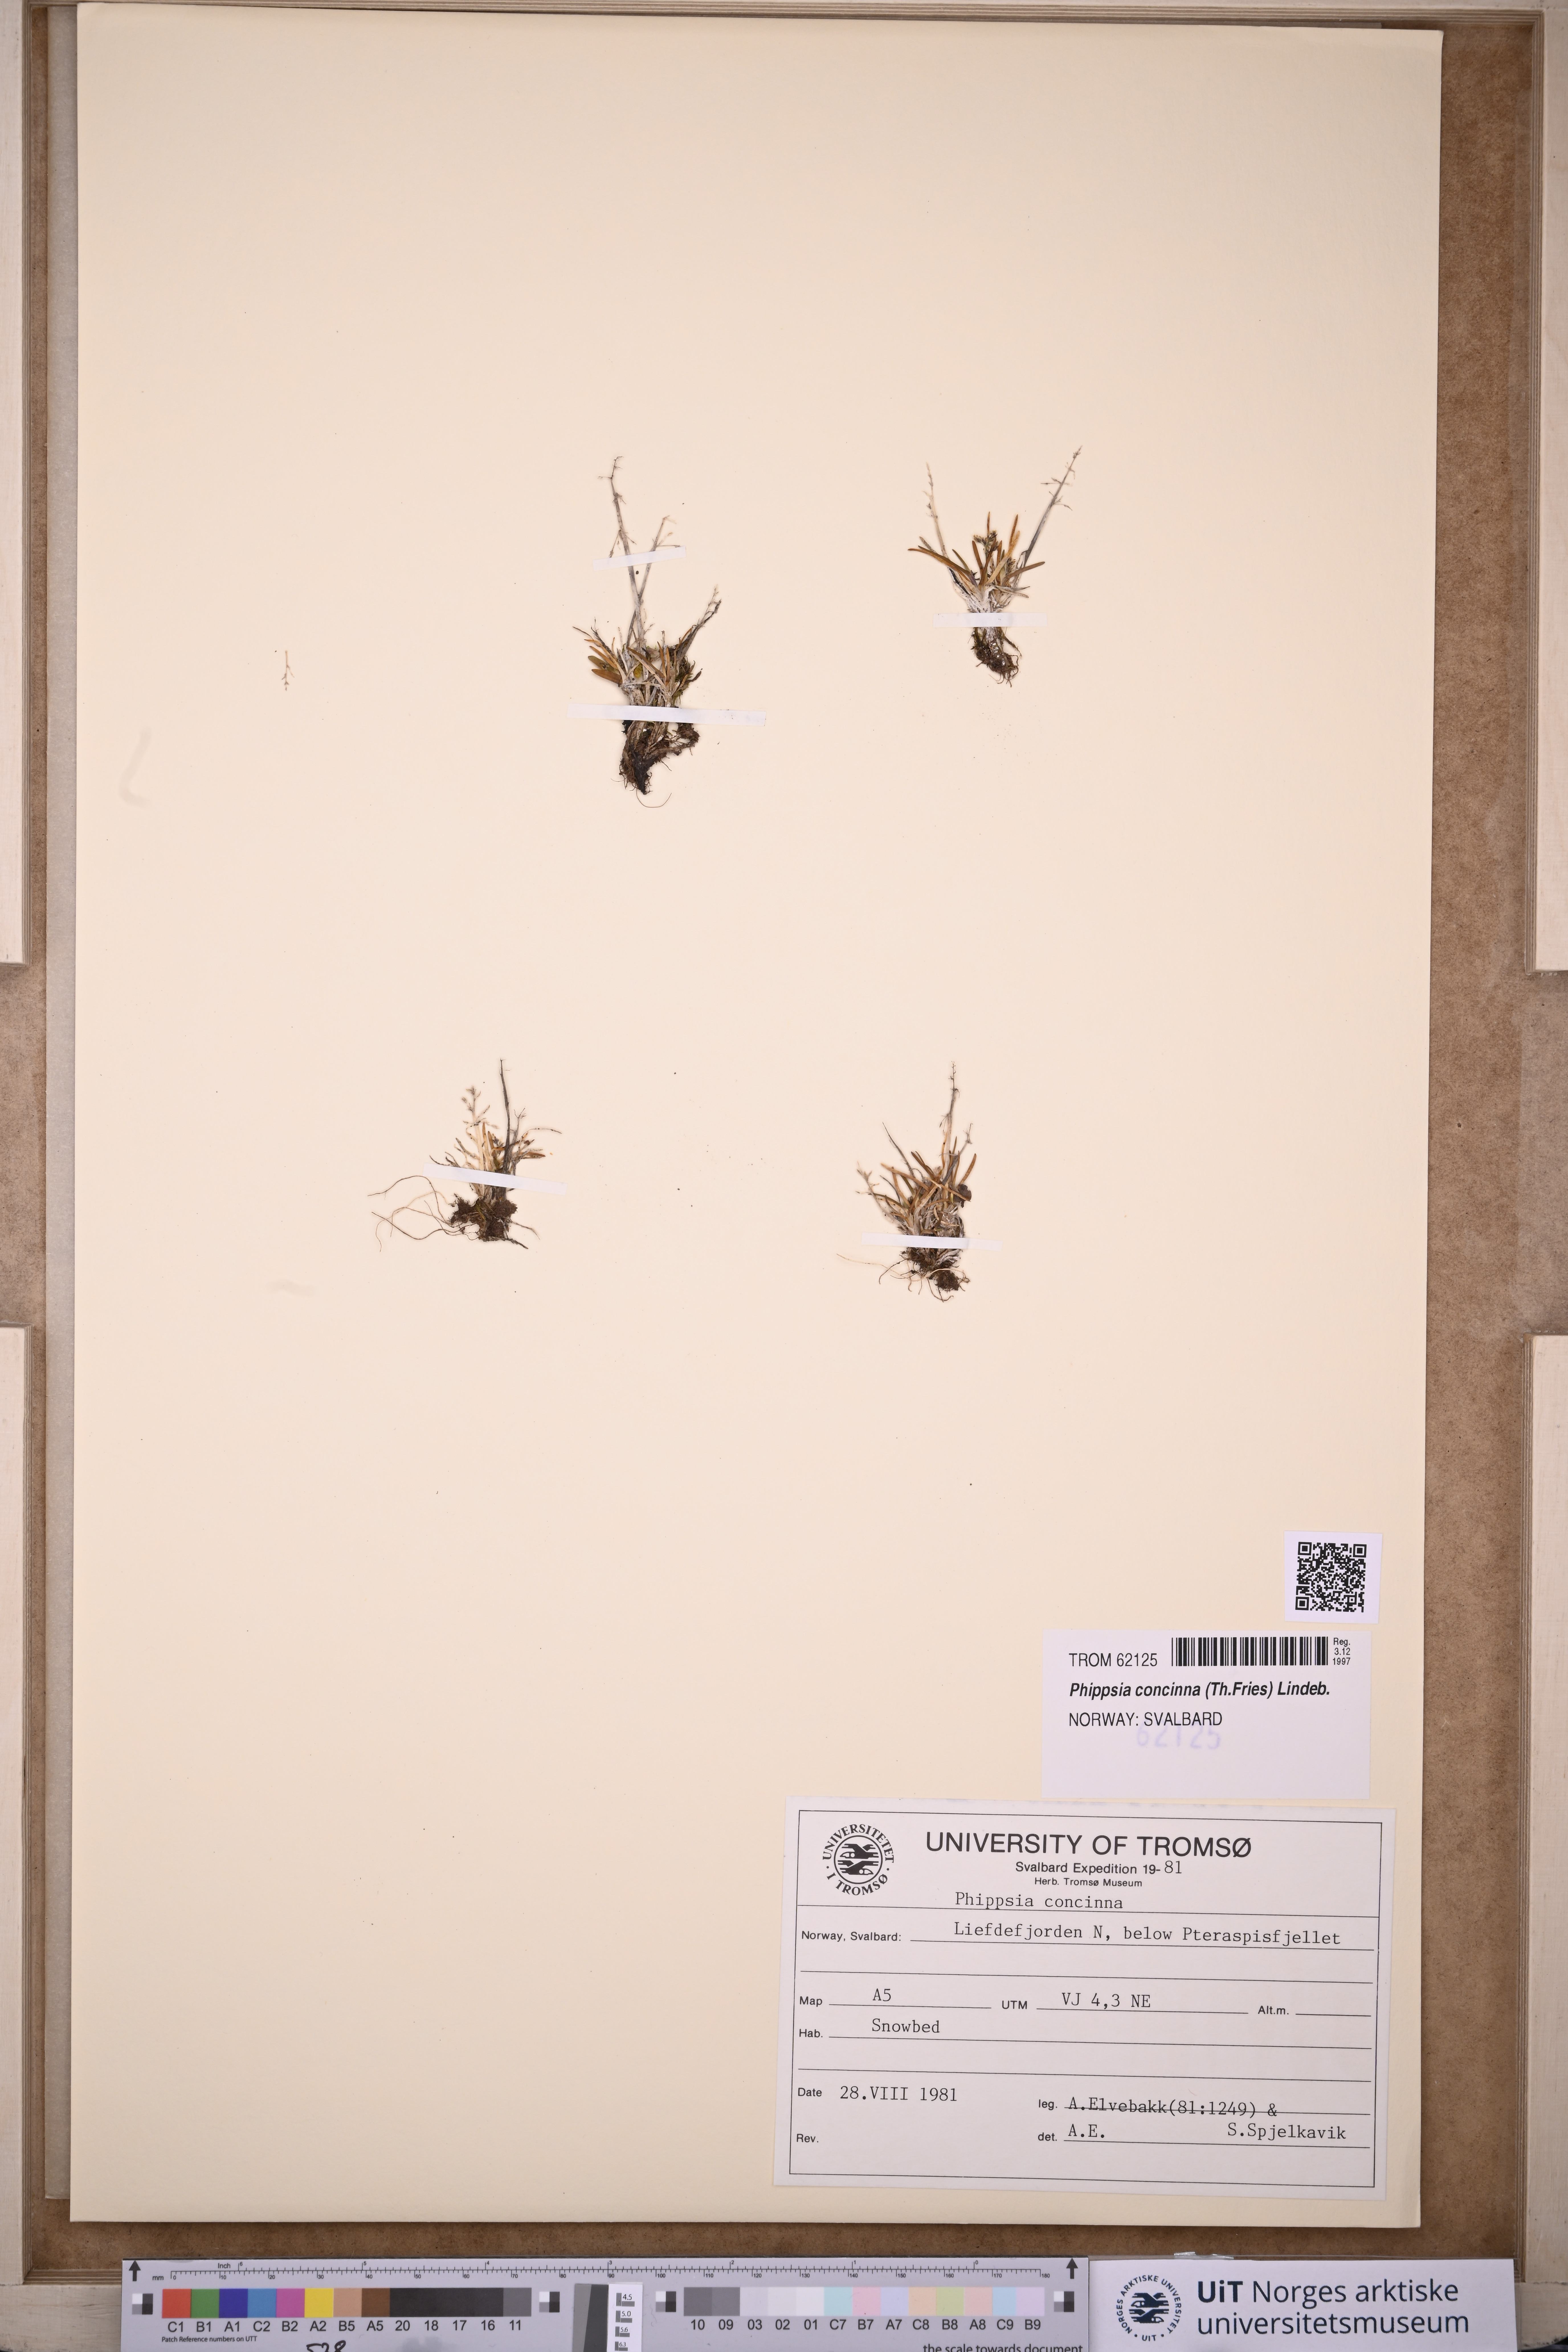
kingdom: Plantae
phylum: Tracheophyta
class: Liliopsida
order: Poales
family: Poaceae
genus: Phippsia
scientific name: Phippsia concinna
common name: Snowgrass
